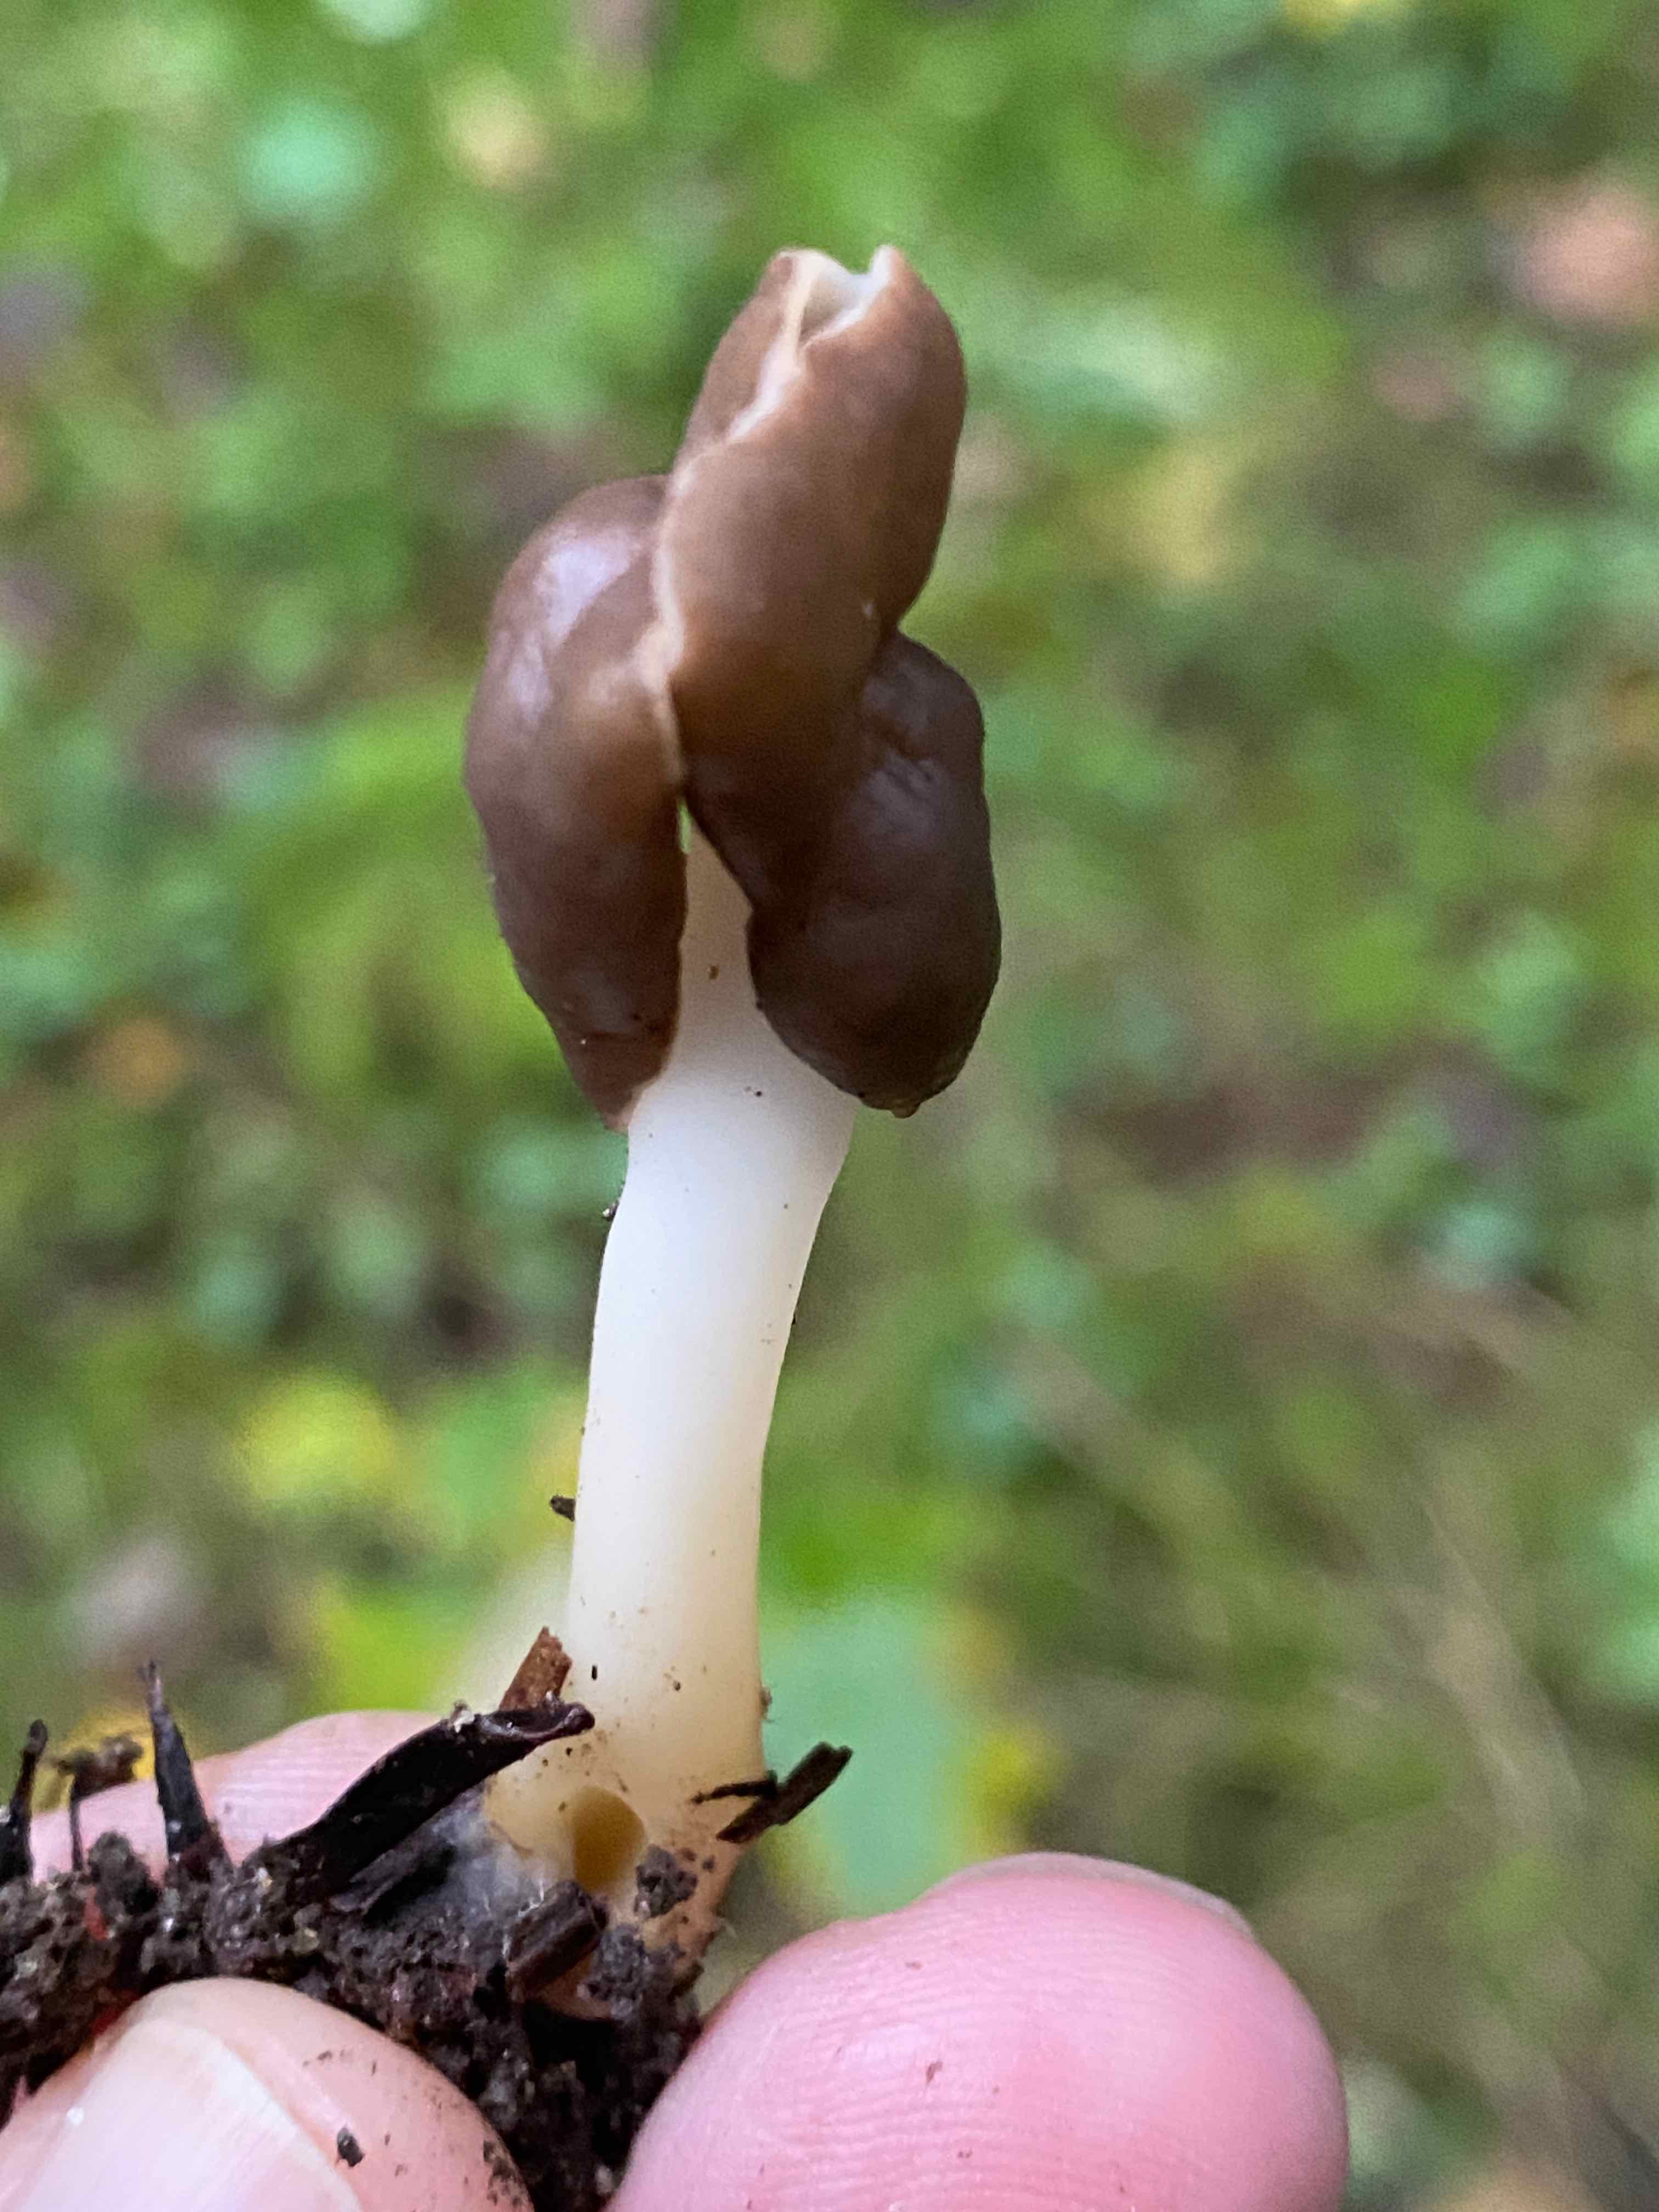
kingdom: Fungi
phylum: Ascomycota
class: Pezizomycetes
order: Pezizales
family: Helvellaceae
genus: Helvella
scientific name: Helvella elastica
